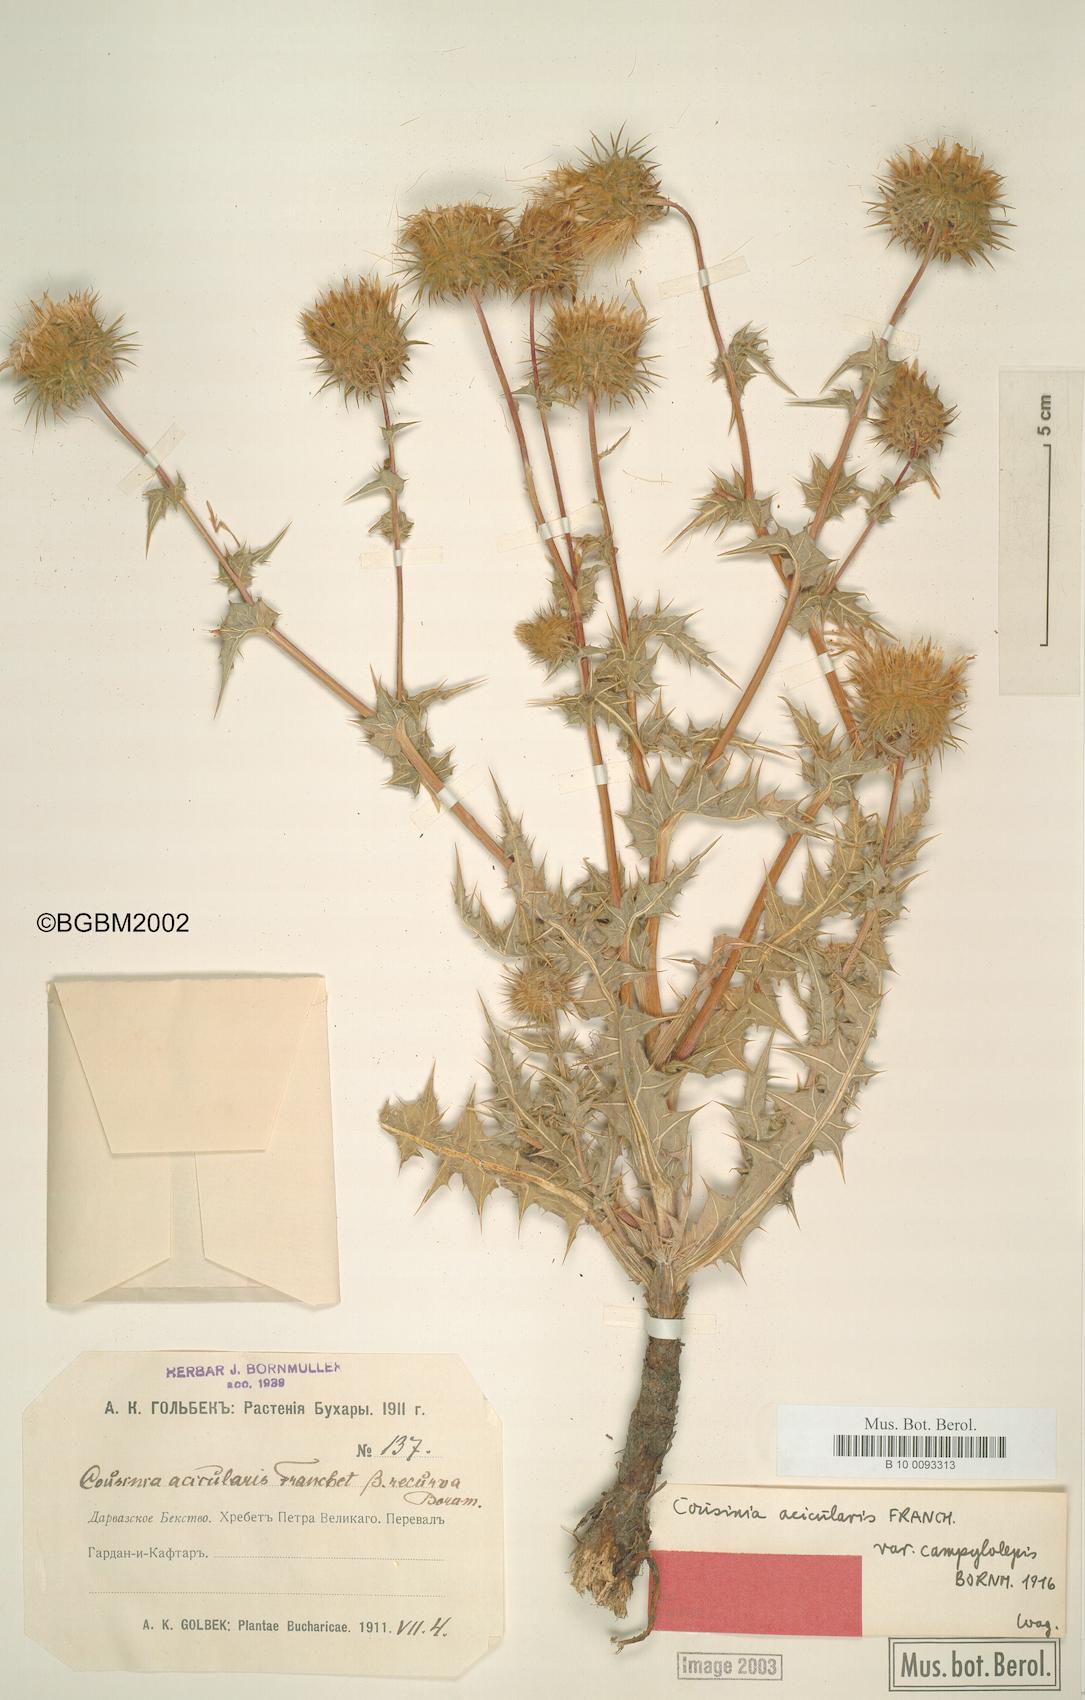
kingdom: Plantae
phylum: Tracheophyta
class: Magnoliopsida
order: Asterales
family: Asteraceae
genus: Cousinia
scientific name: Cousinia alpina
